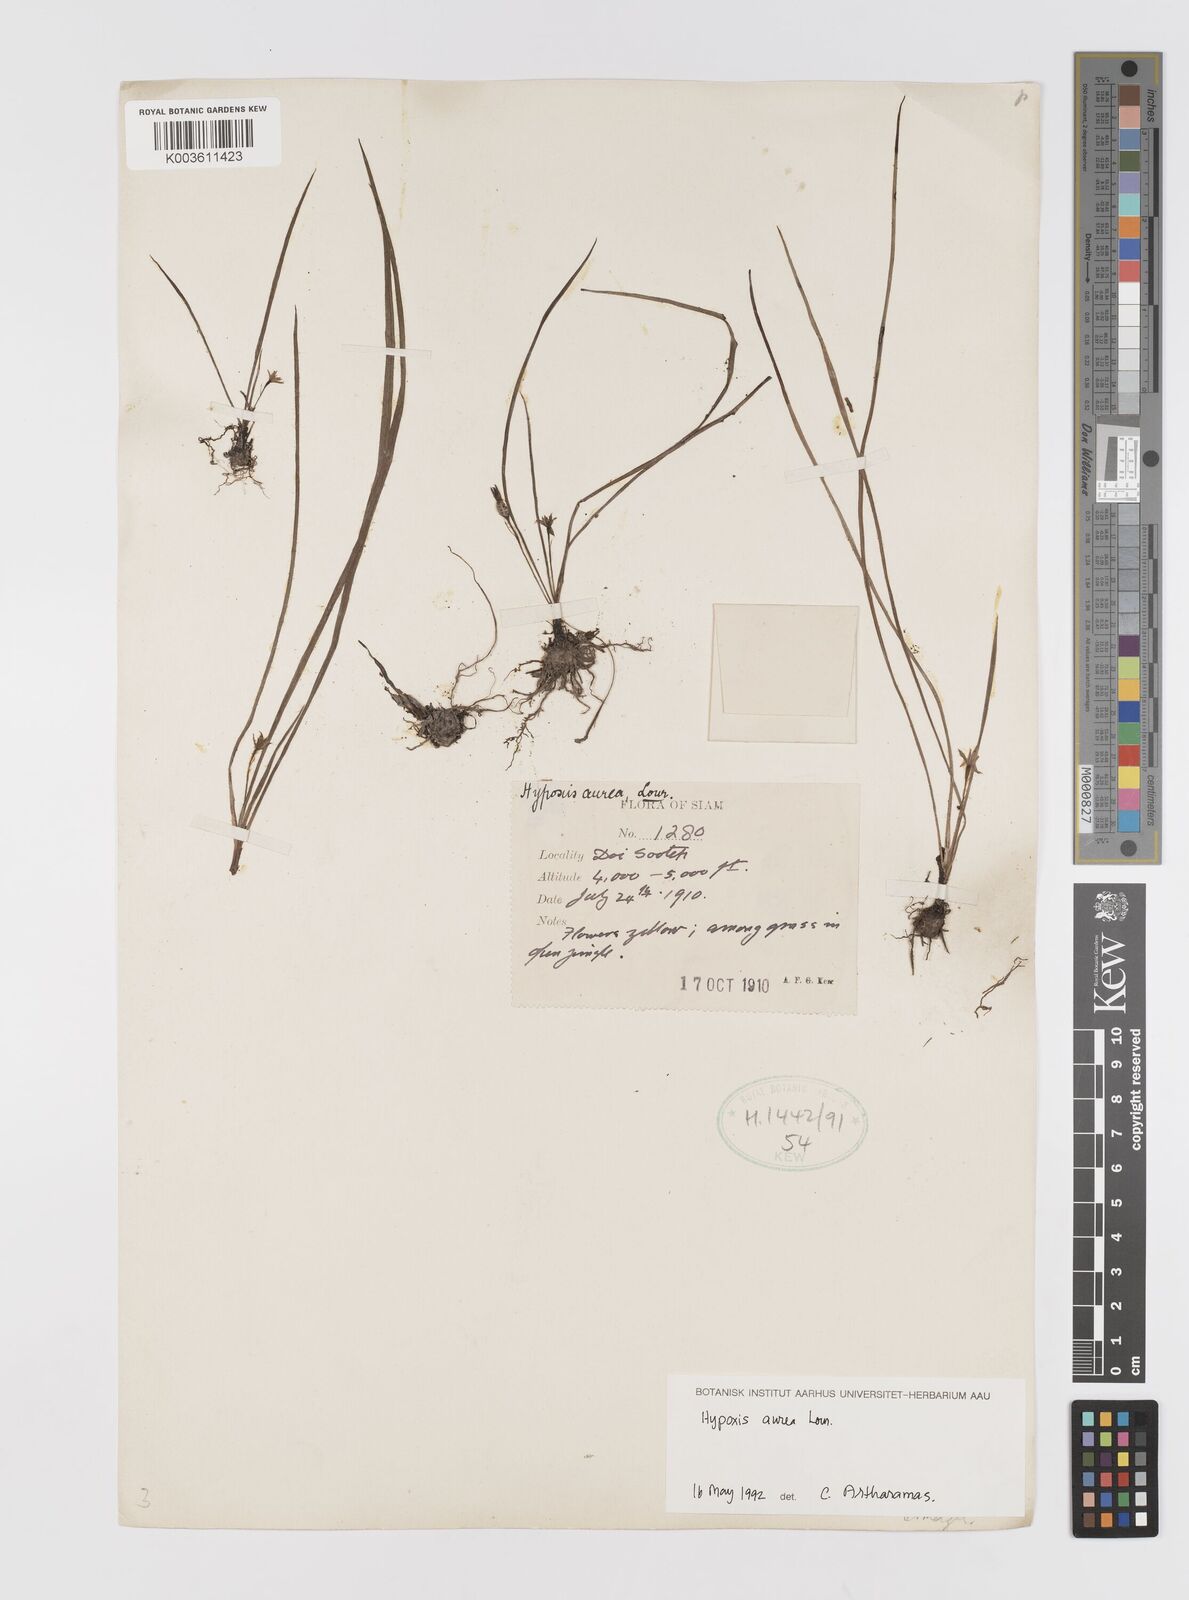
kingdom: Plantae
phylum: Tracheophyta
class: Liliopsida
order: Asparagales
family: Hypoxidaceae
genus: Hypoxis
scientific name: Hypoxis aurea
